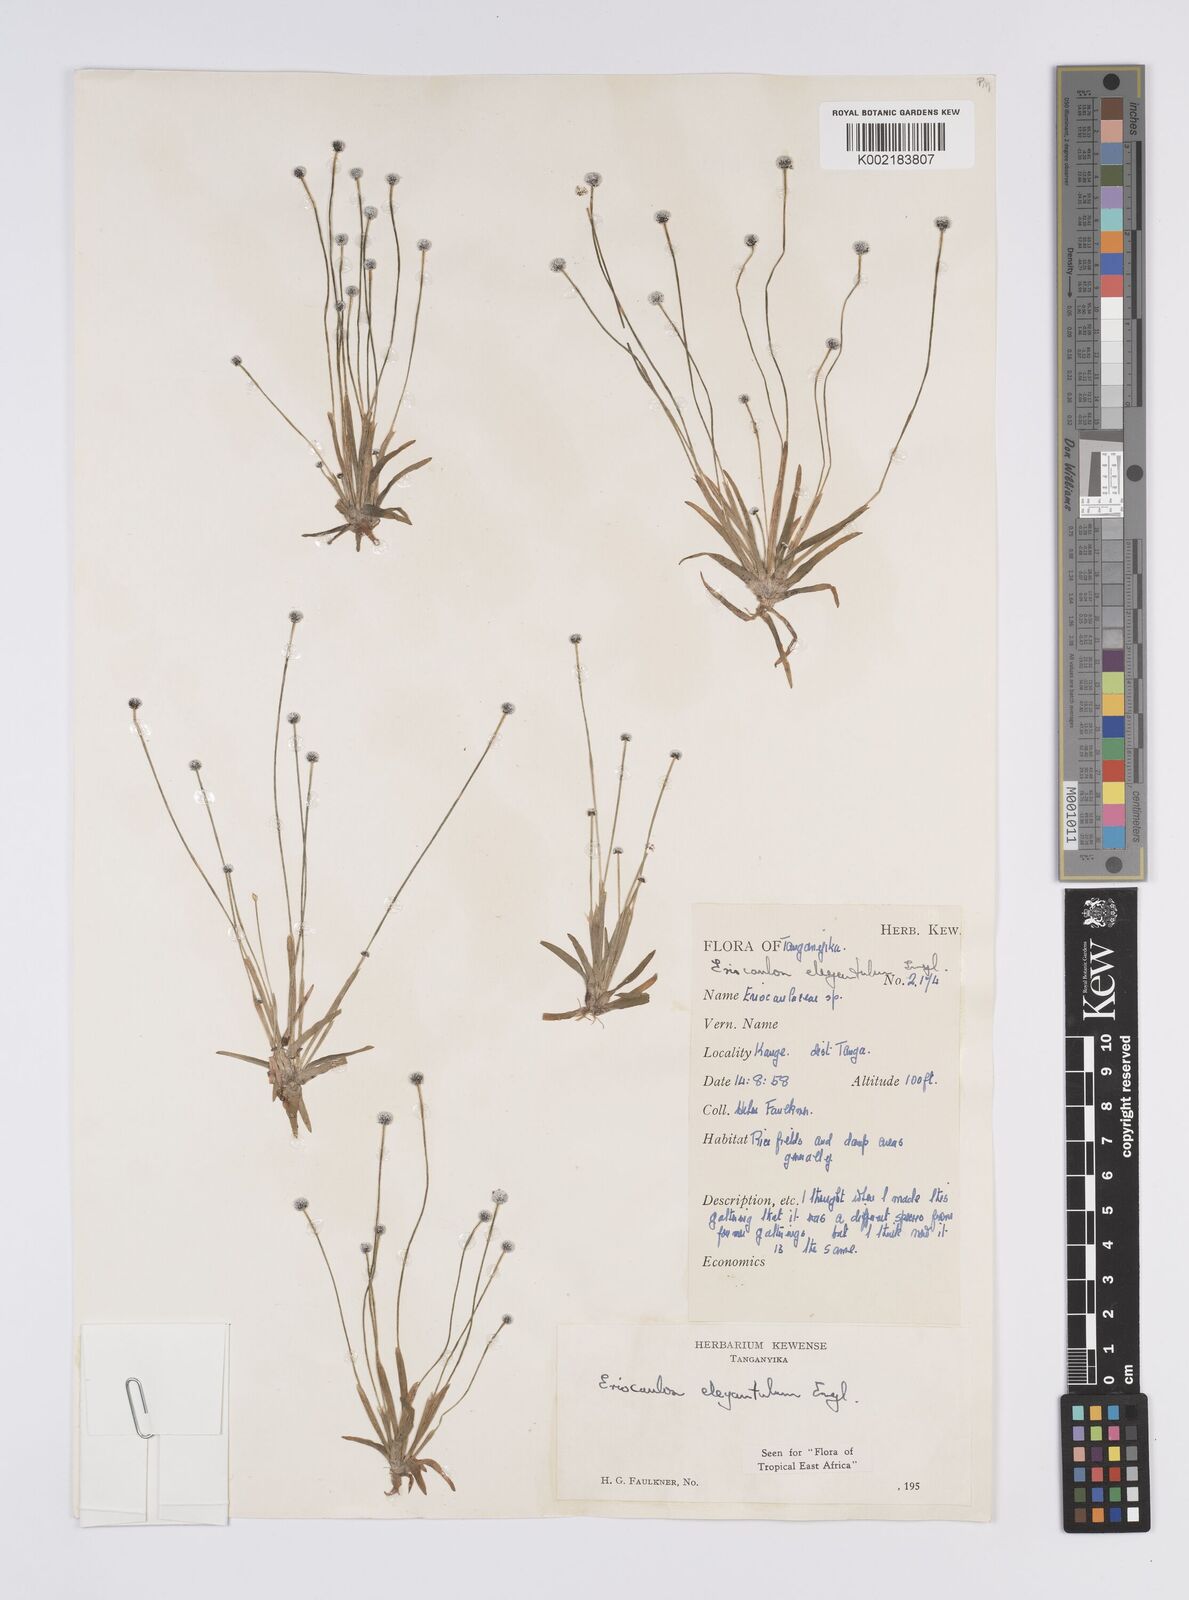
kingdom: Plantae
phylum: Tracheophyta
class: Liliopsida
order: Poales
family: Eriocaulaceae
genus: Eriocaulon
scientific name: Eriocaulon elegantulum
